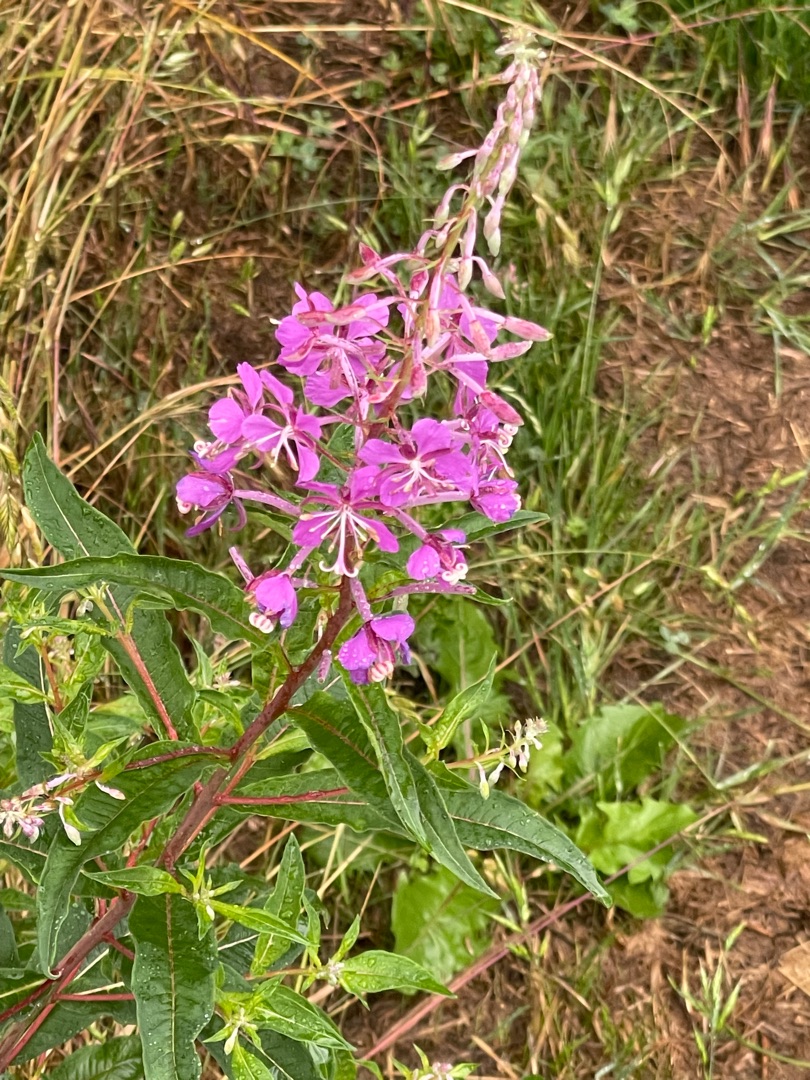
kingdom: Plantae
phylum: Tracheophyta
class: Magnoliopsida
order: Myrtales
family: Onagraceae
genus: Chamaenerion
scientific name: Chamaenerion angustifolium
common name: Gederams
